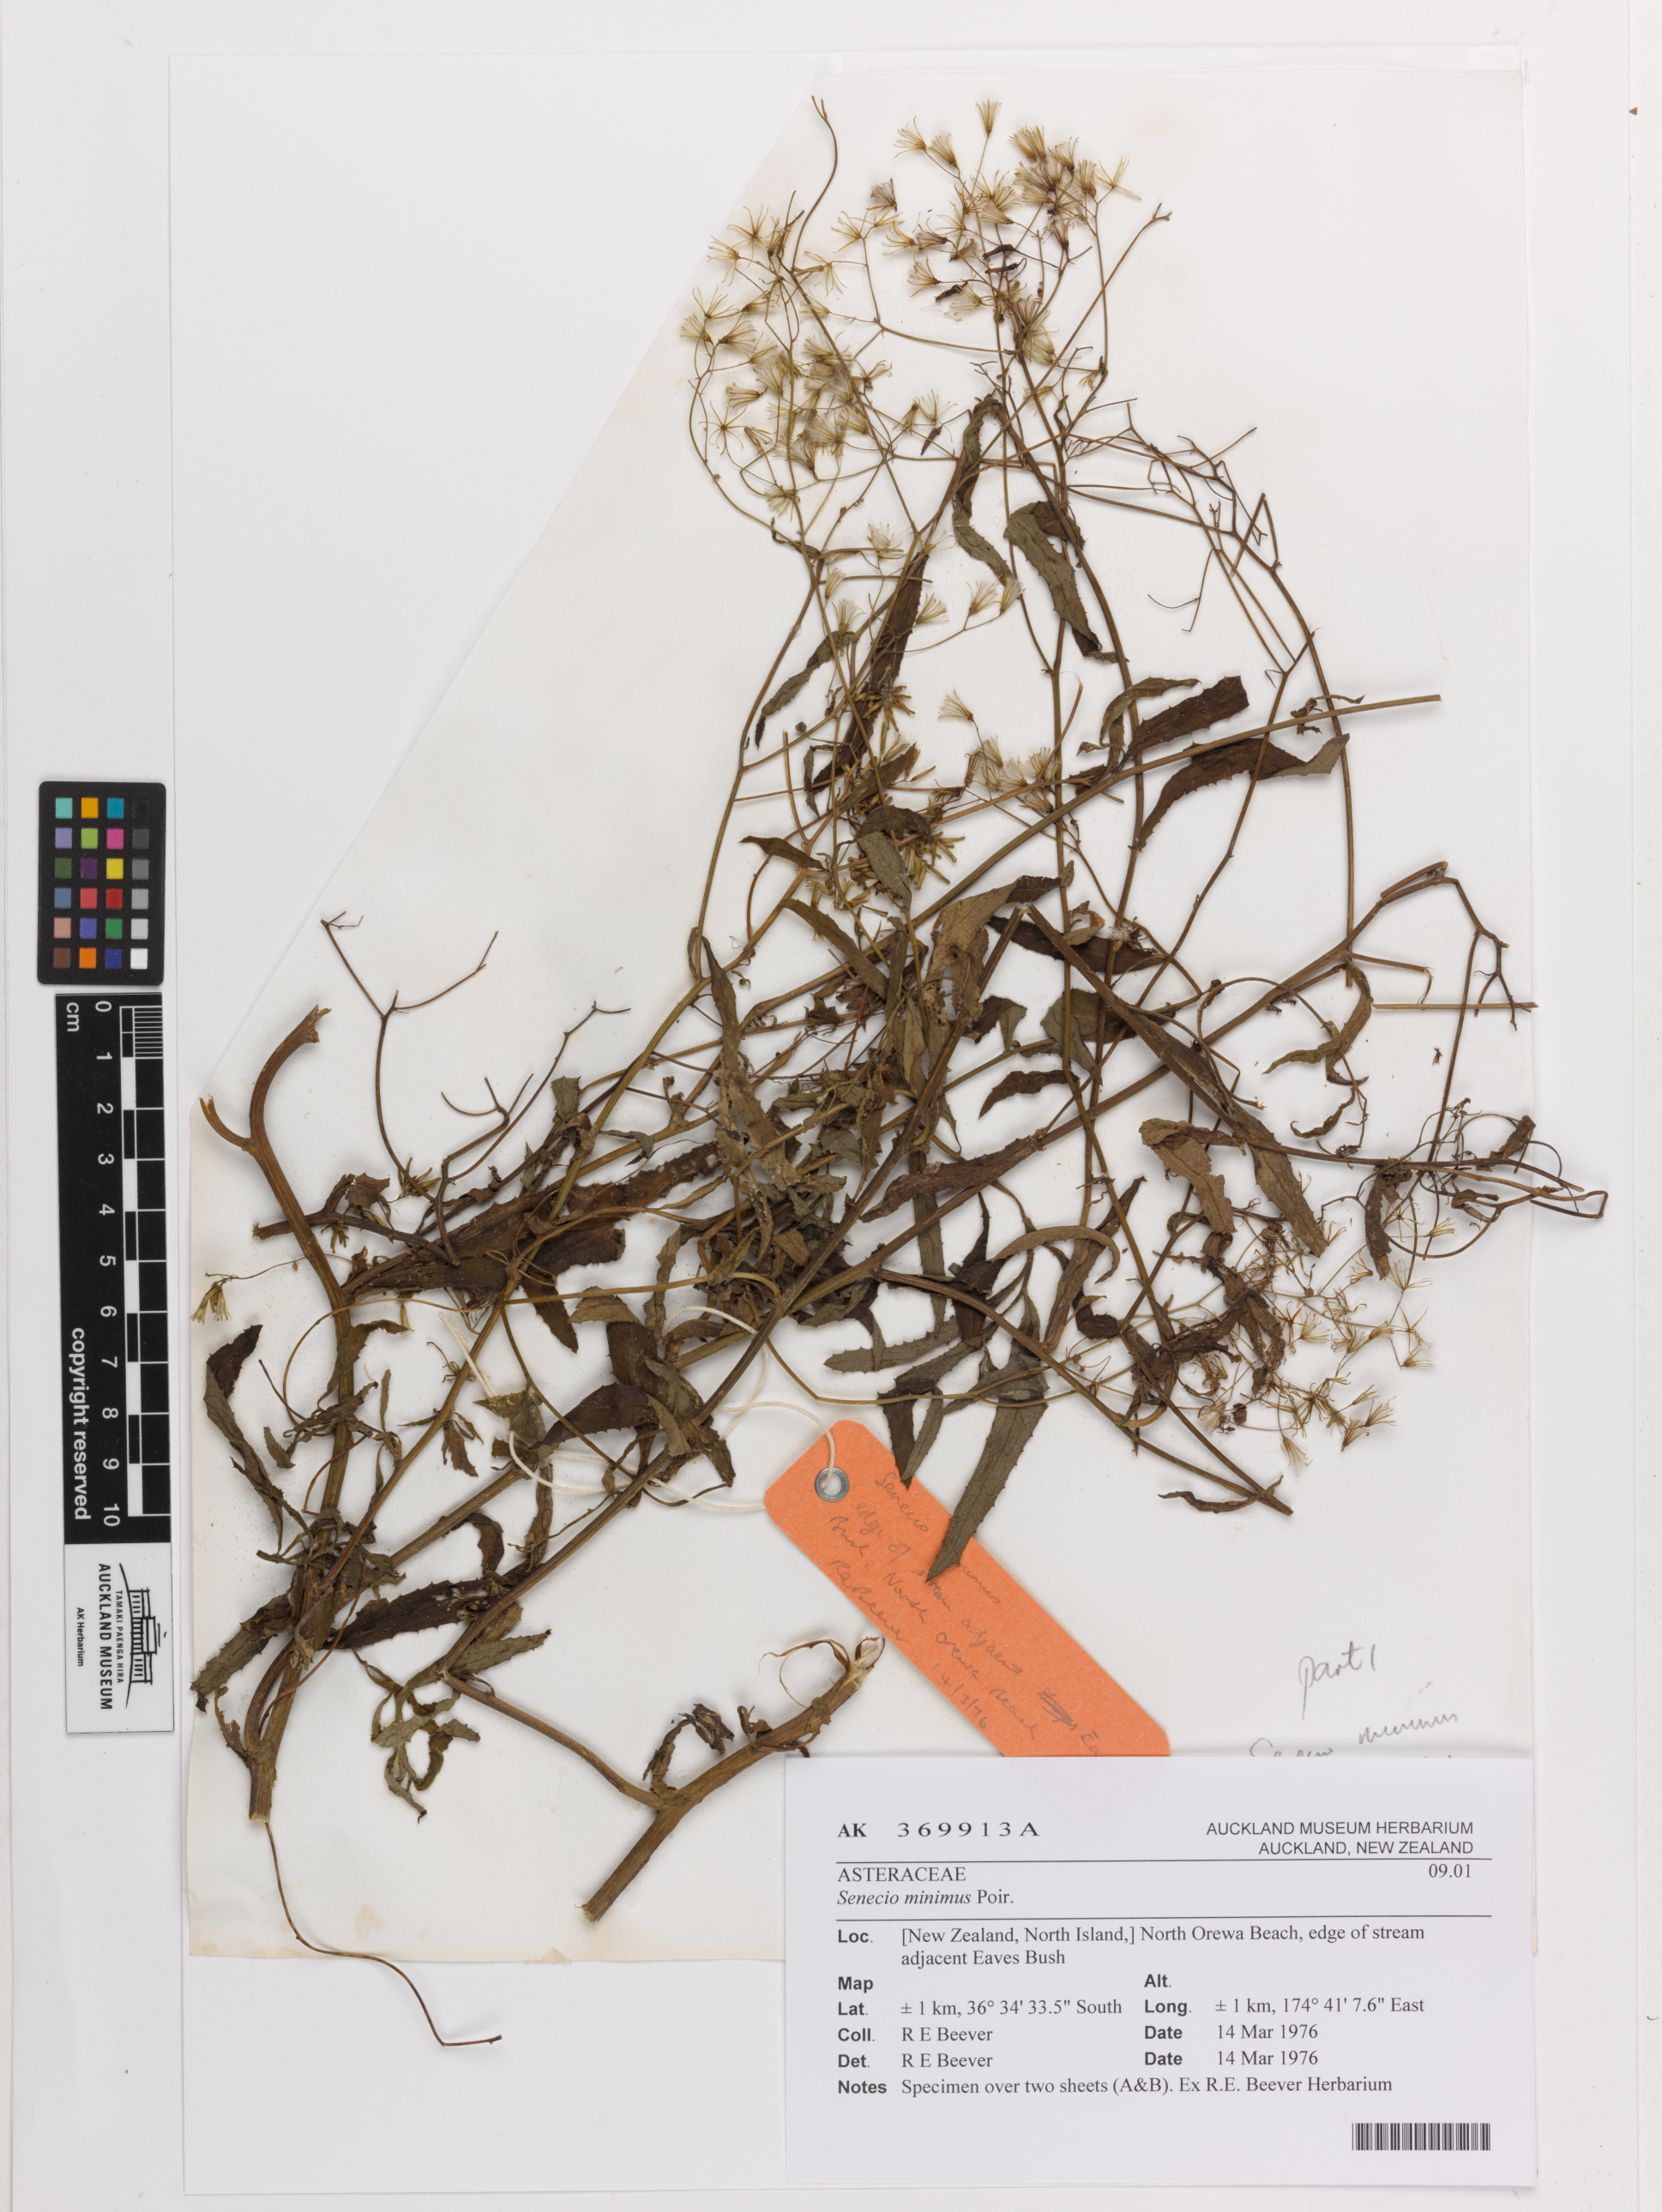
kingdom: Plantae
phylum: Tracheophyta
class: Magnoliopsida
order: Asterales
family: Asteraceae
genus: Senecio
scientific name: Senecio minimus
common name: Toothed fireweed
